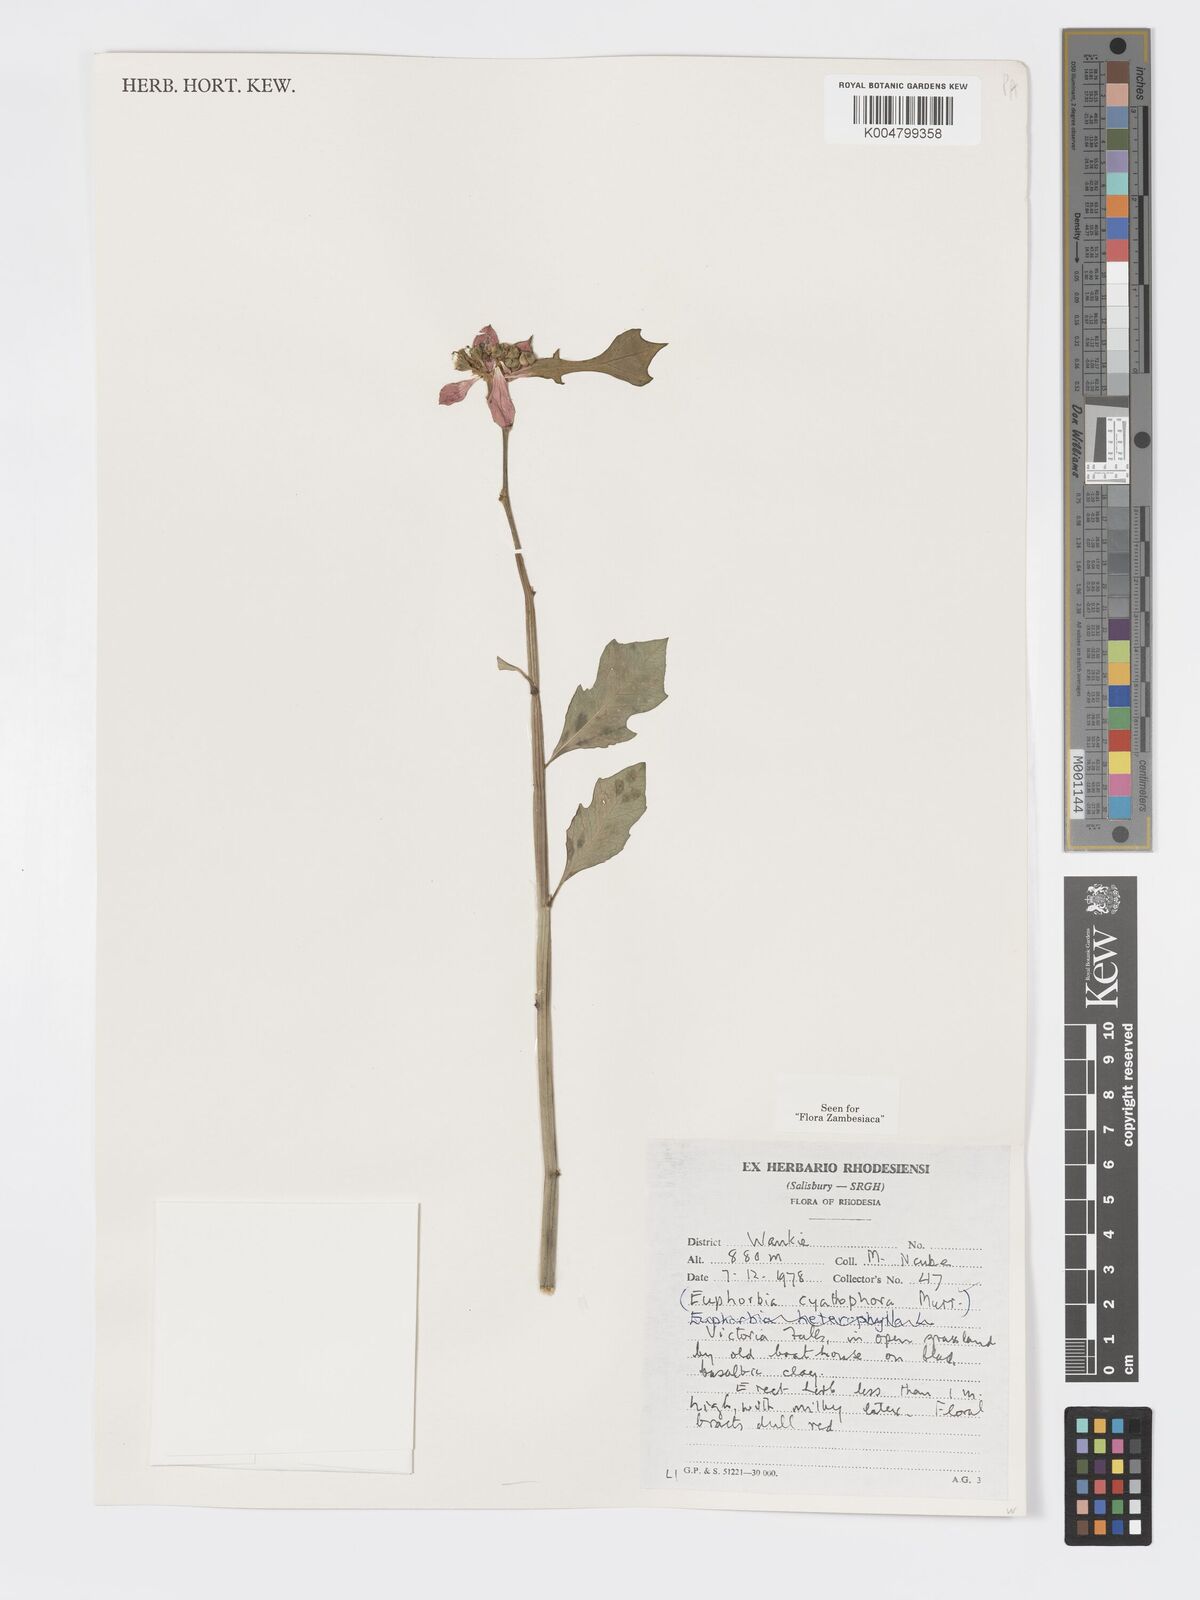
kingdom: Plantae
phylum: Tracheophyta
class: Magnoliopsida
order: Malpighiales
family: Euphorbiaceae
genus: Euphorbia
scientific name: Euphorbia heterophylla
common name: Mexican fireplant
